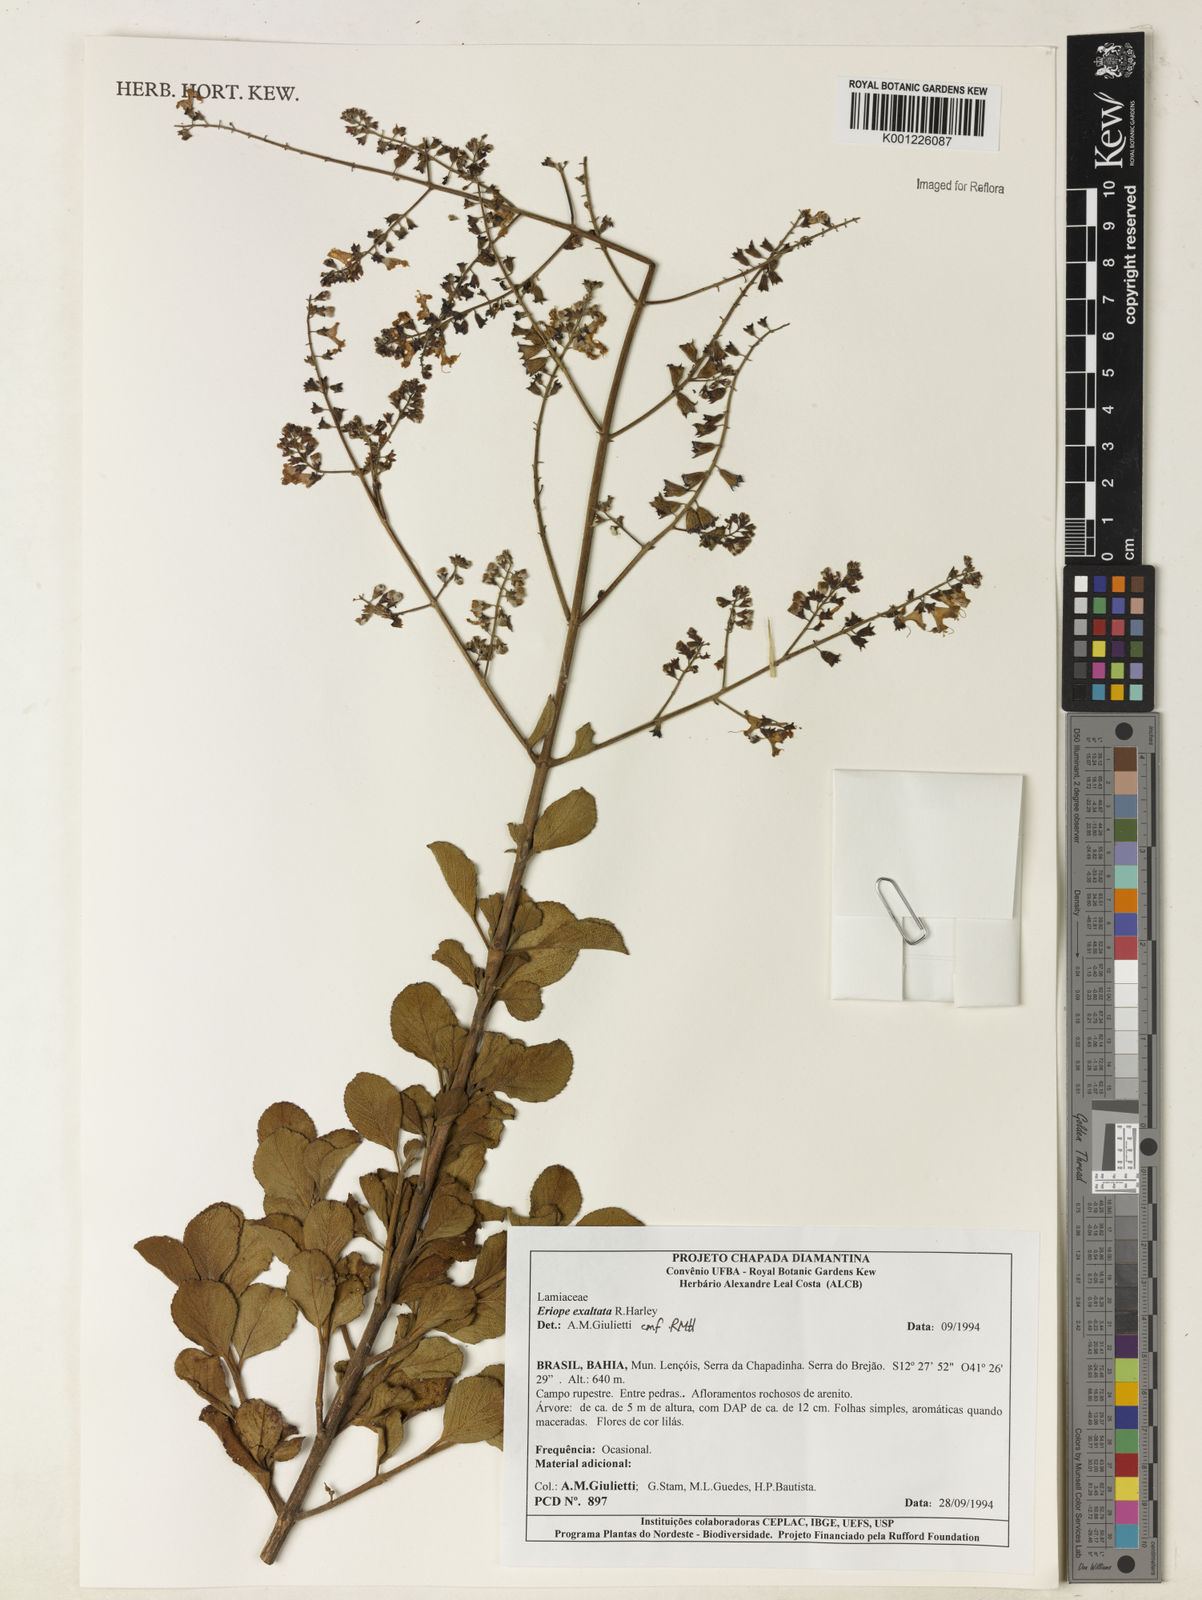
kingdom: Plantae
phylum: Tracheophyta
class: Magnoliopsida
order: Lamiales
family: Lamiaceae
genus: Eriope
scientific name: Eriope exaltata
